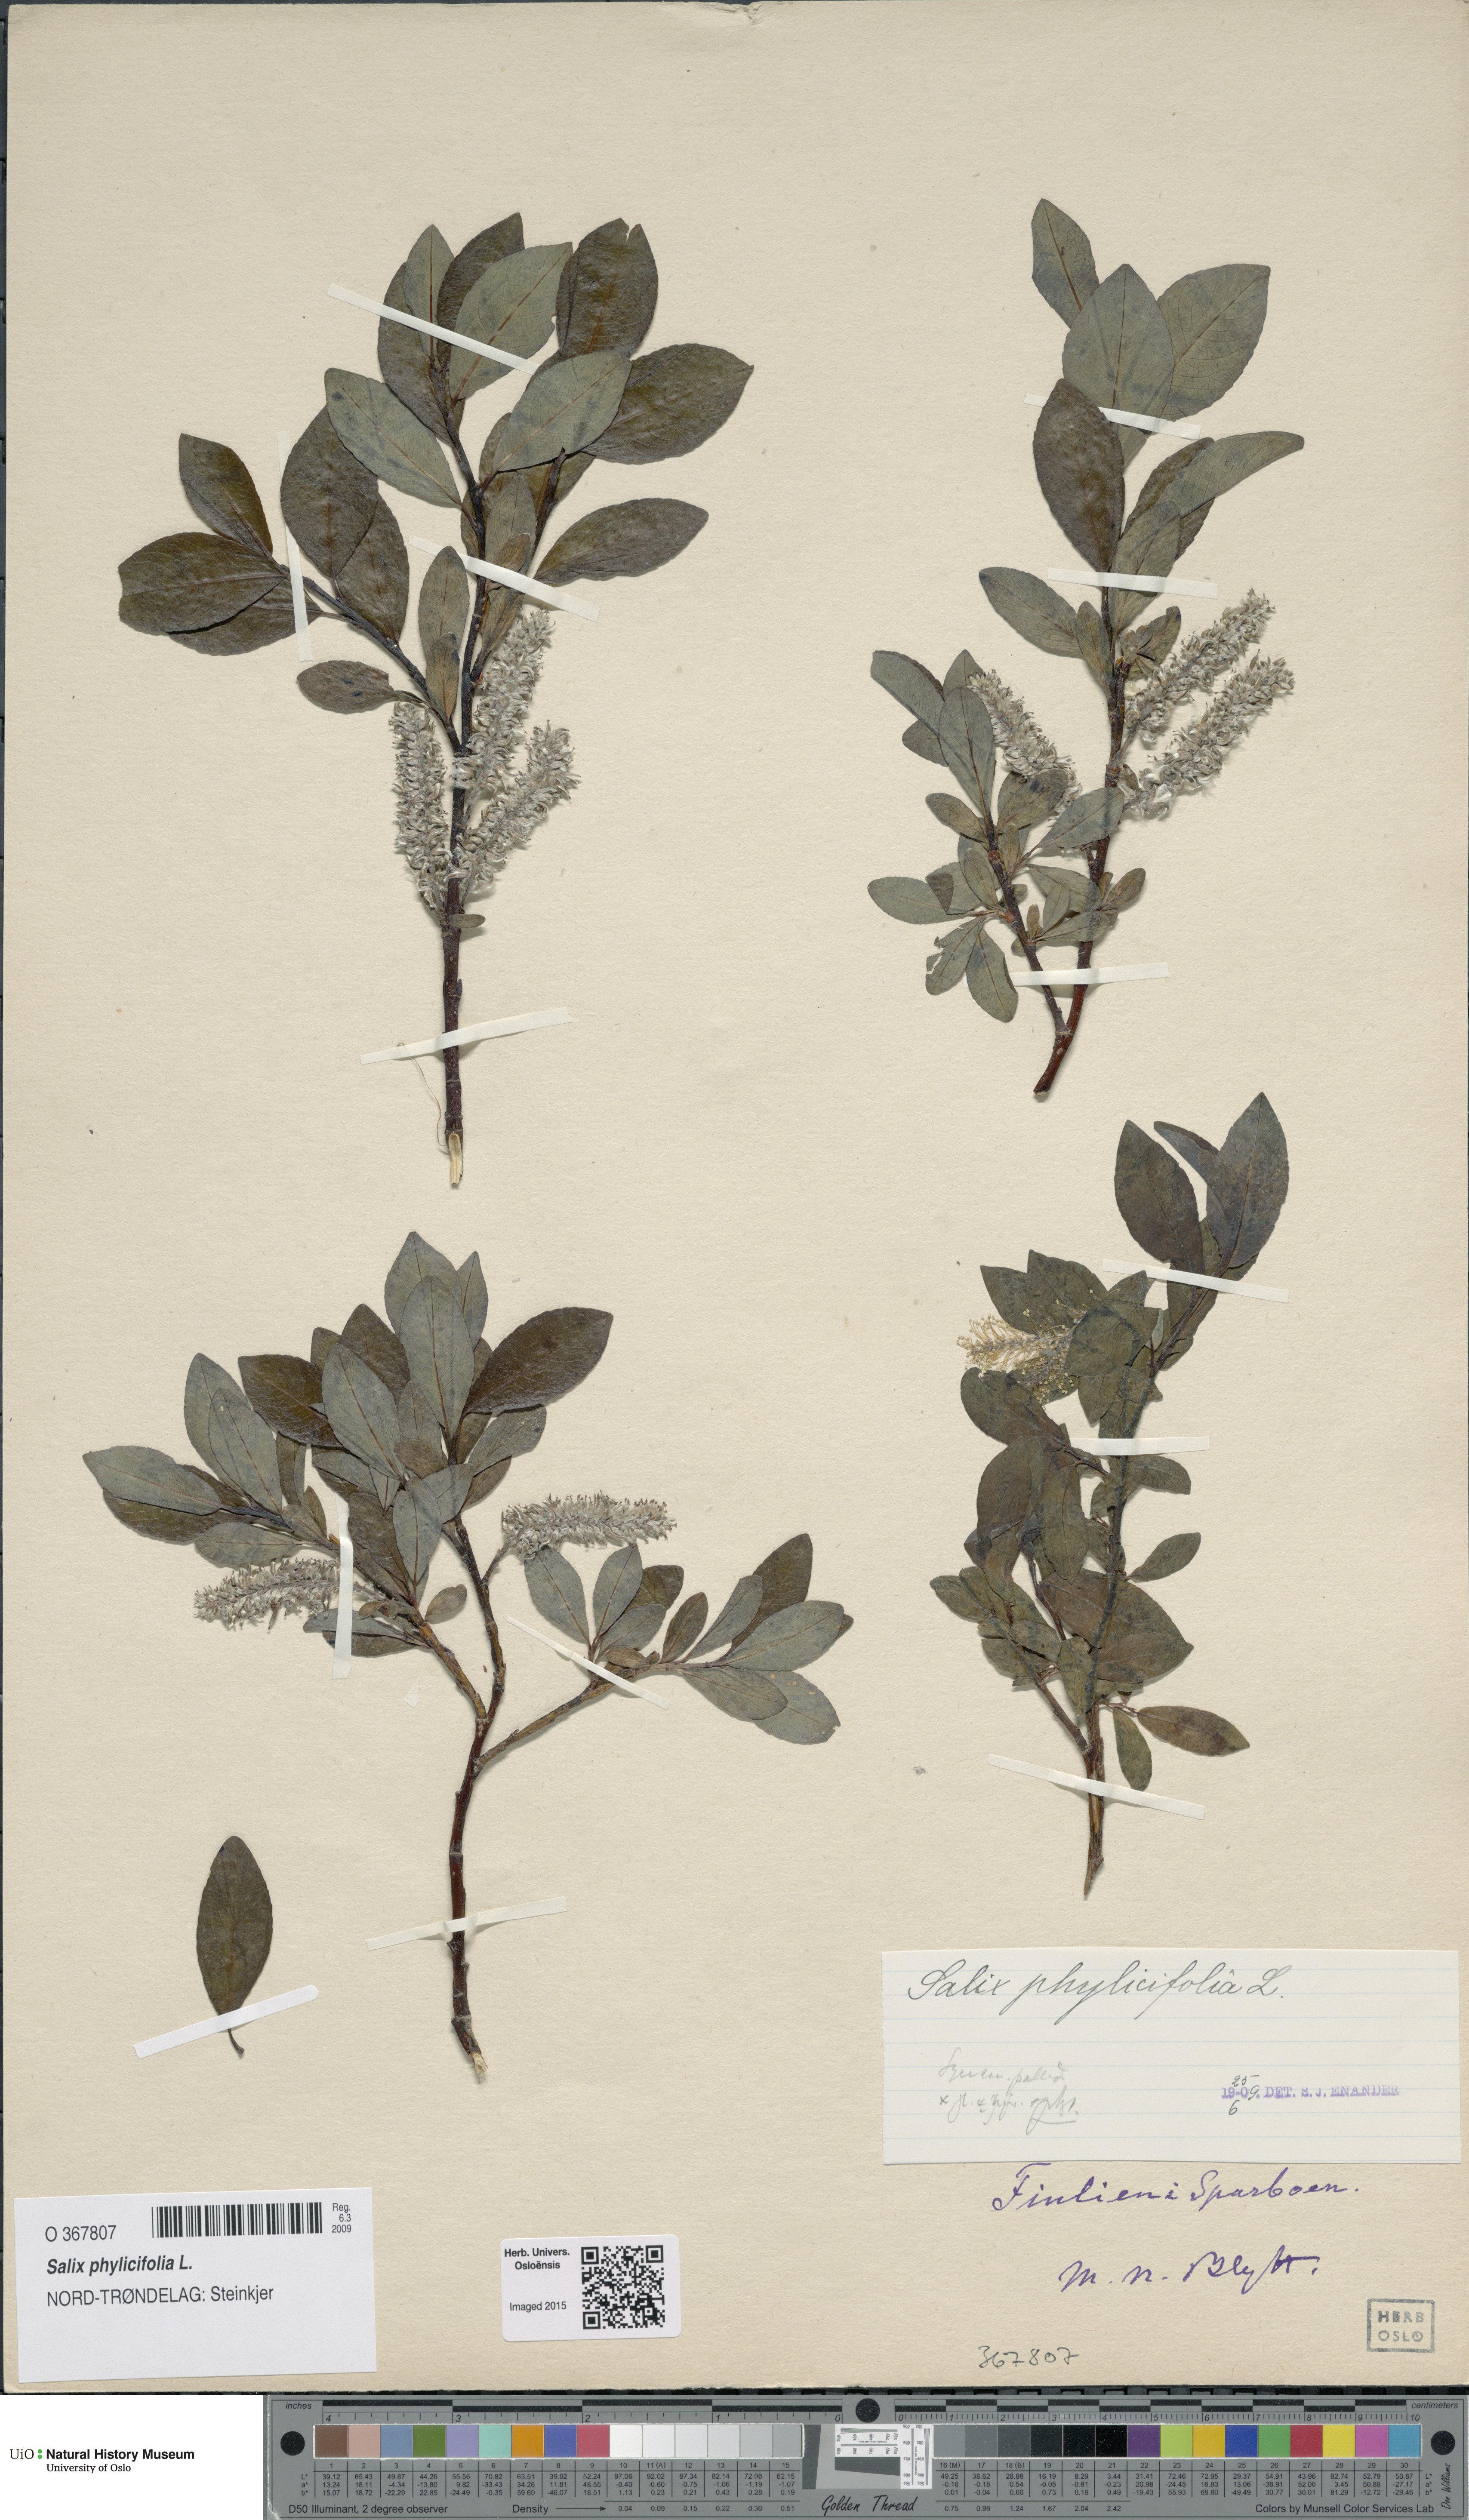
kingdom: Plantae
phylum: Tracheophyta
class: Magnoliopsida
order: Malpighiales
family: Salicaceae
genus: Salix
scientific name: Salix phylicifolia
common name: Tea-leaved willow
